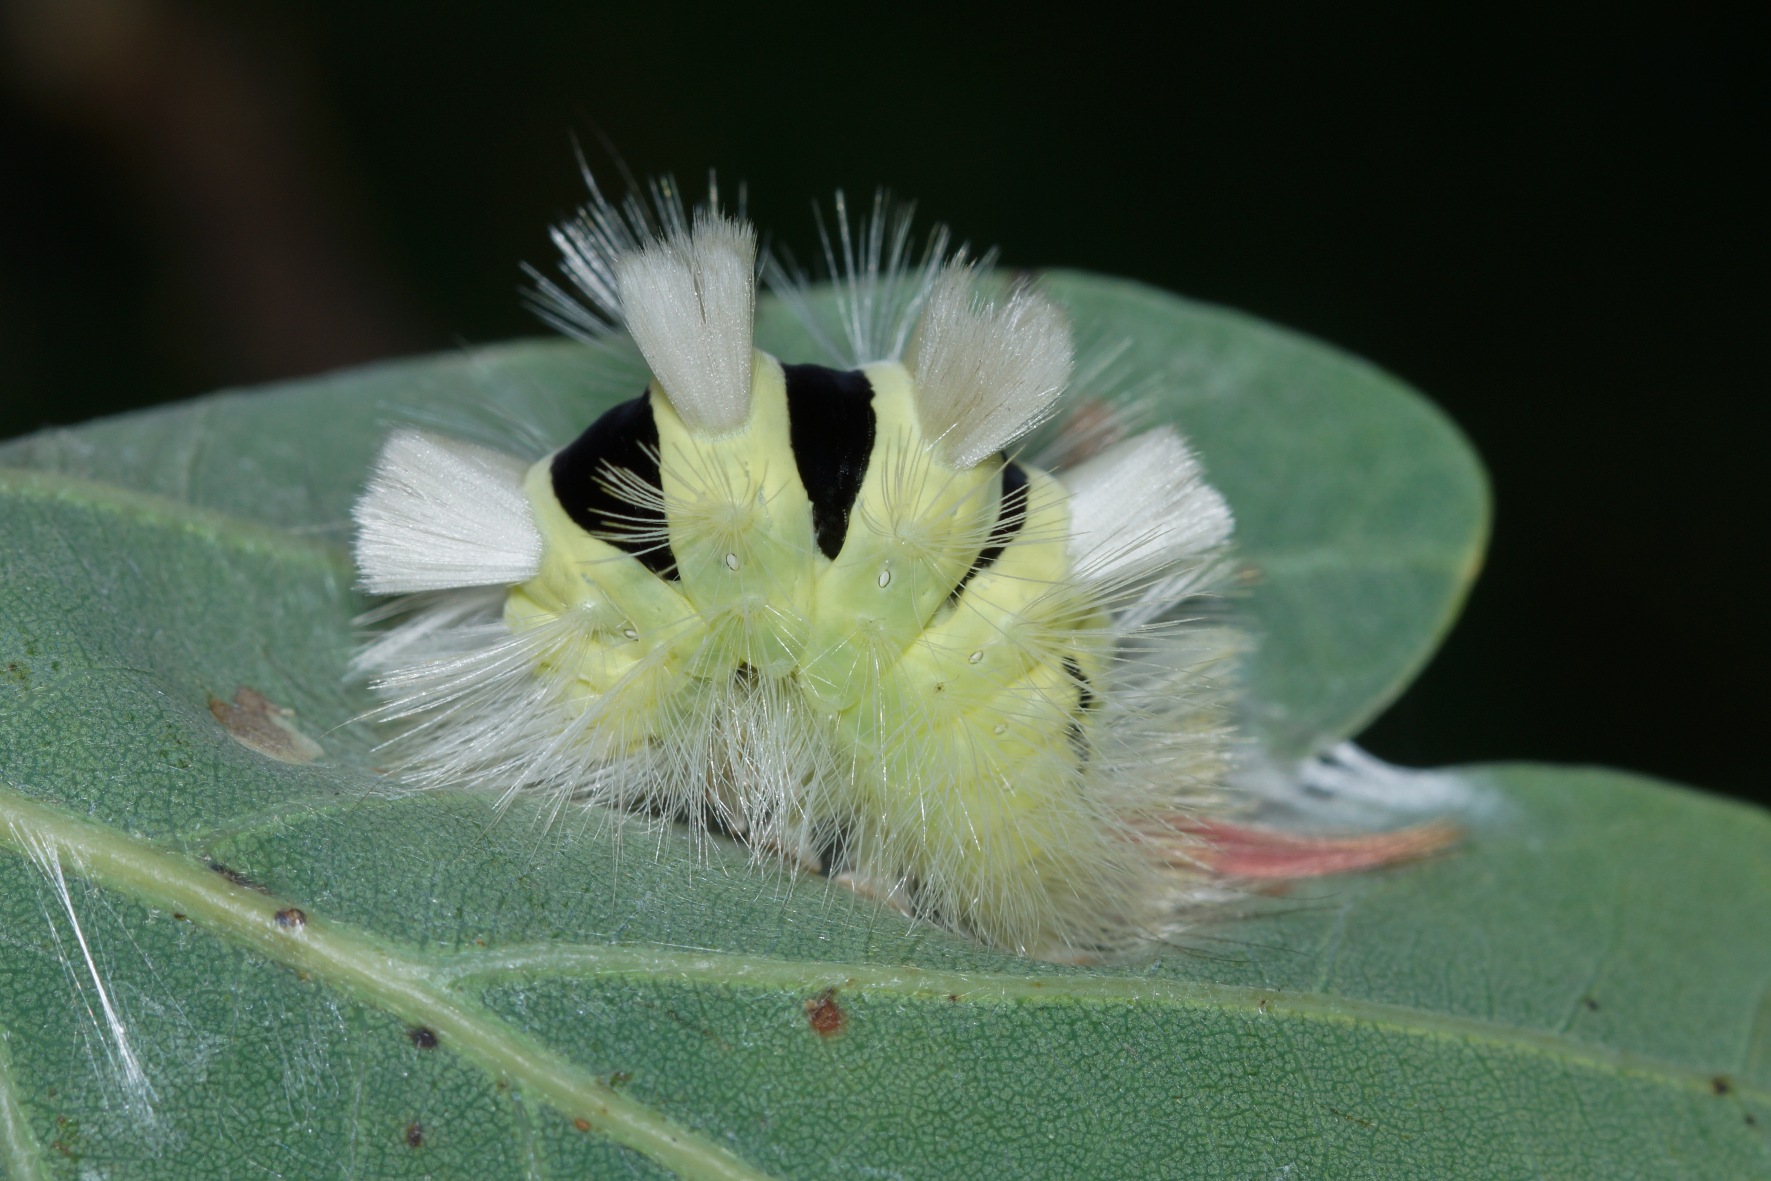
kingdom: Animalia
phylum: Arthropoda
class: Insecta
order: Lepidoptera
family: Erebidae
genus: Calliteara
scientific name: Calliteara pudibunda
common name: Bøgenonne
